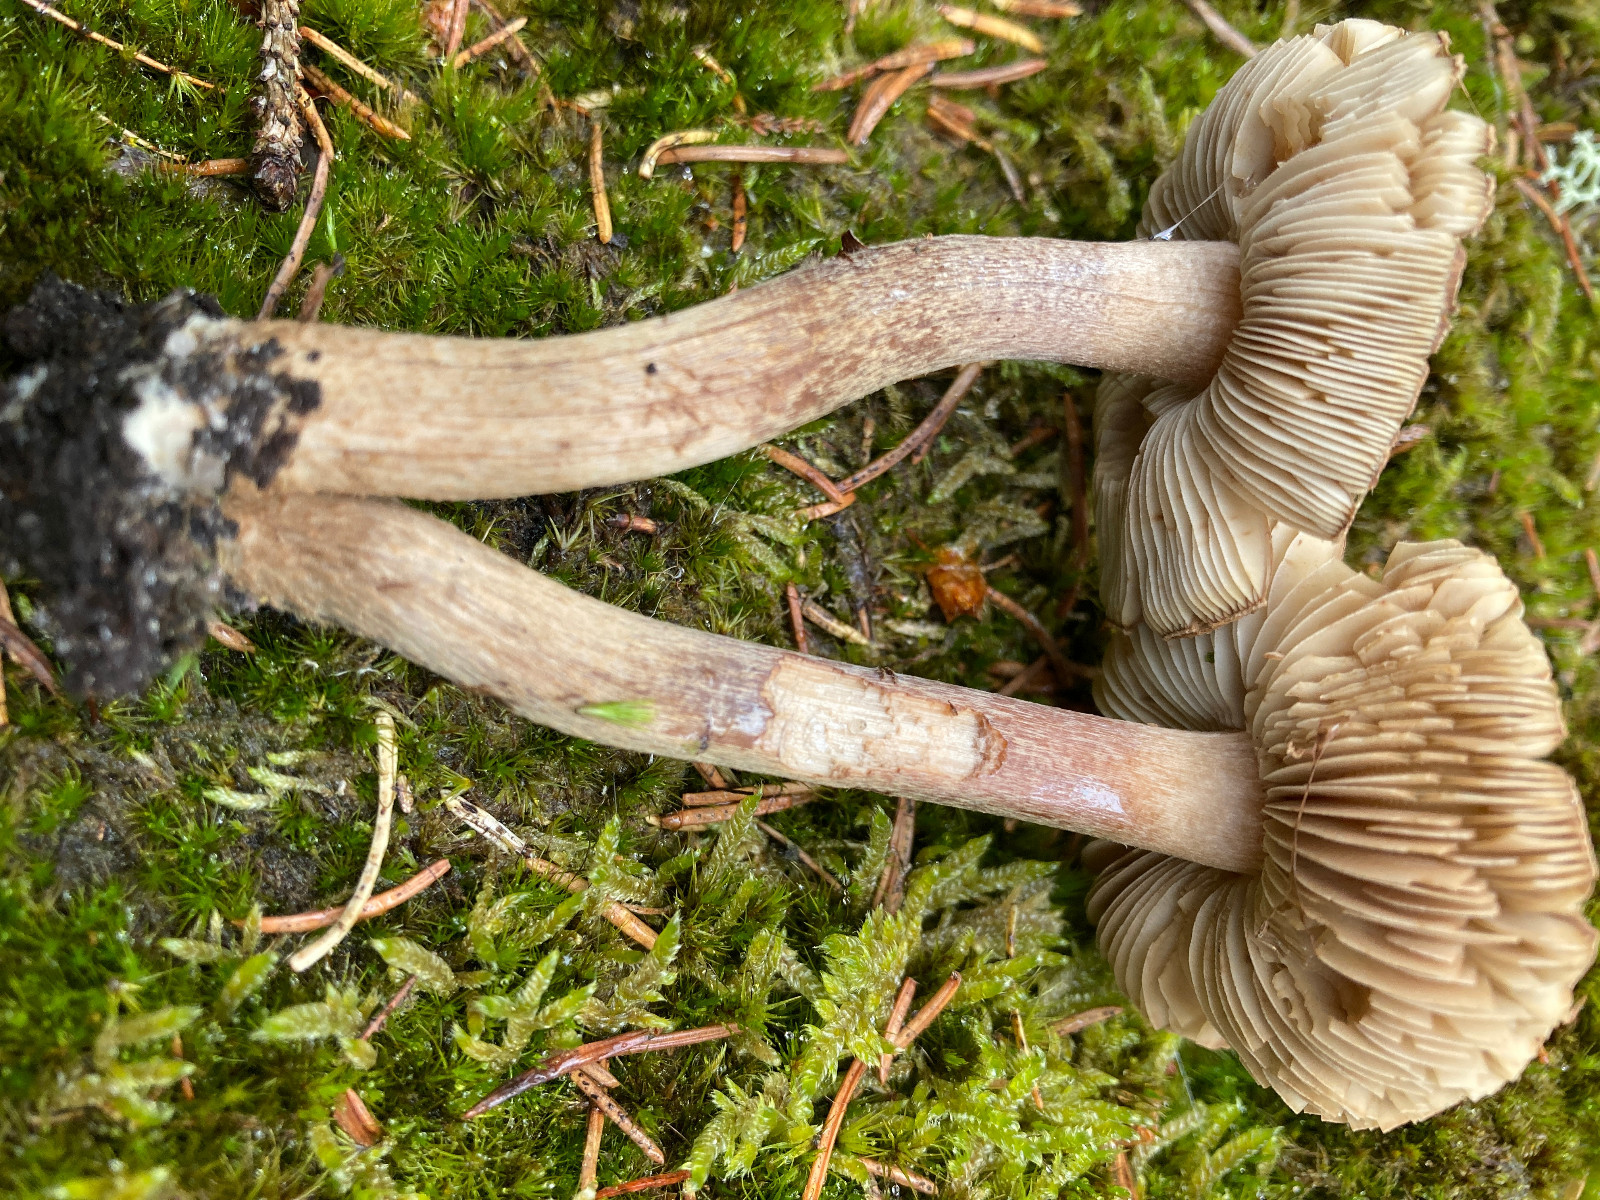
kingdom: Fungi
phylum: Basidiomycota
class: Agaricomycetes
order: Agaricales
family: Inocybaceae
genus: Inocybe
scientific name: Inocybe subcarpta
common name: plantage-trævlhat
